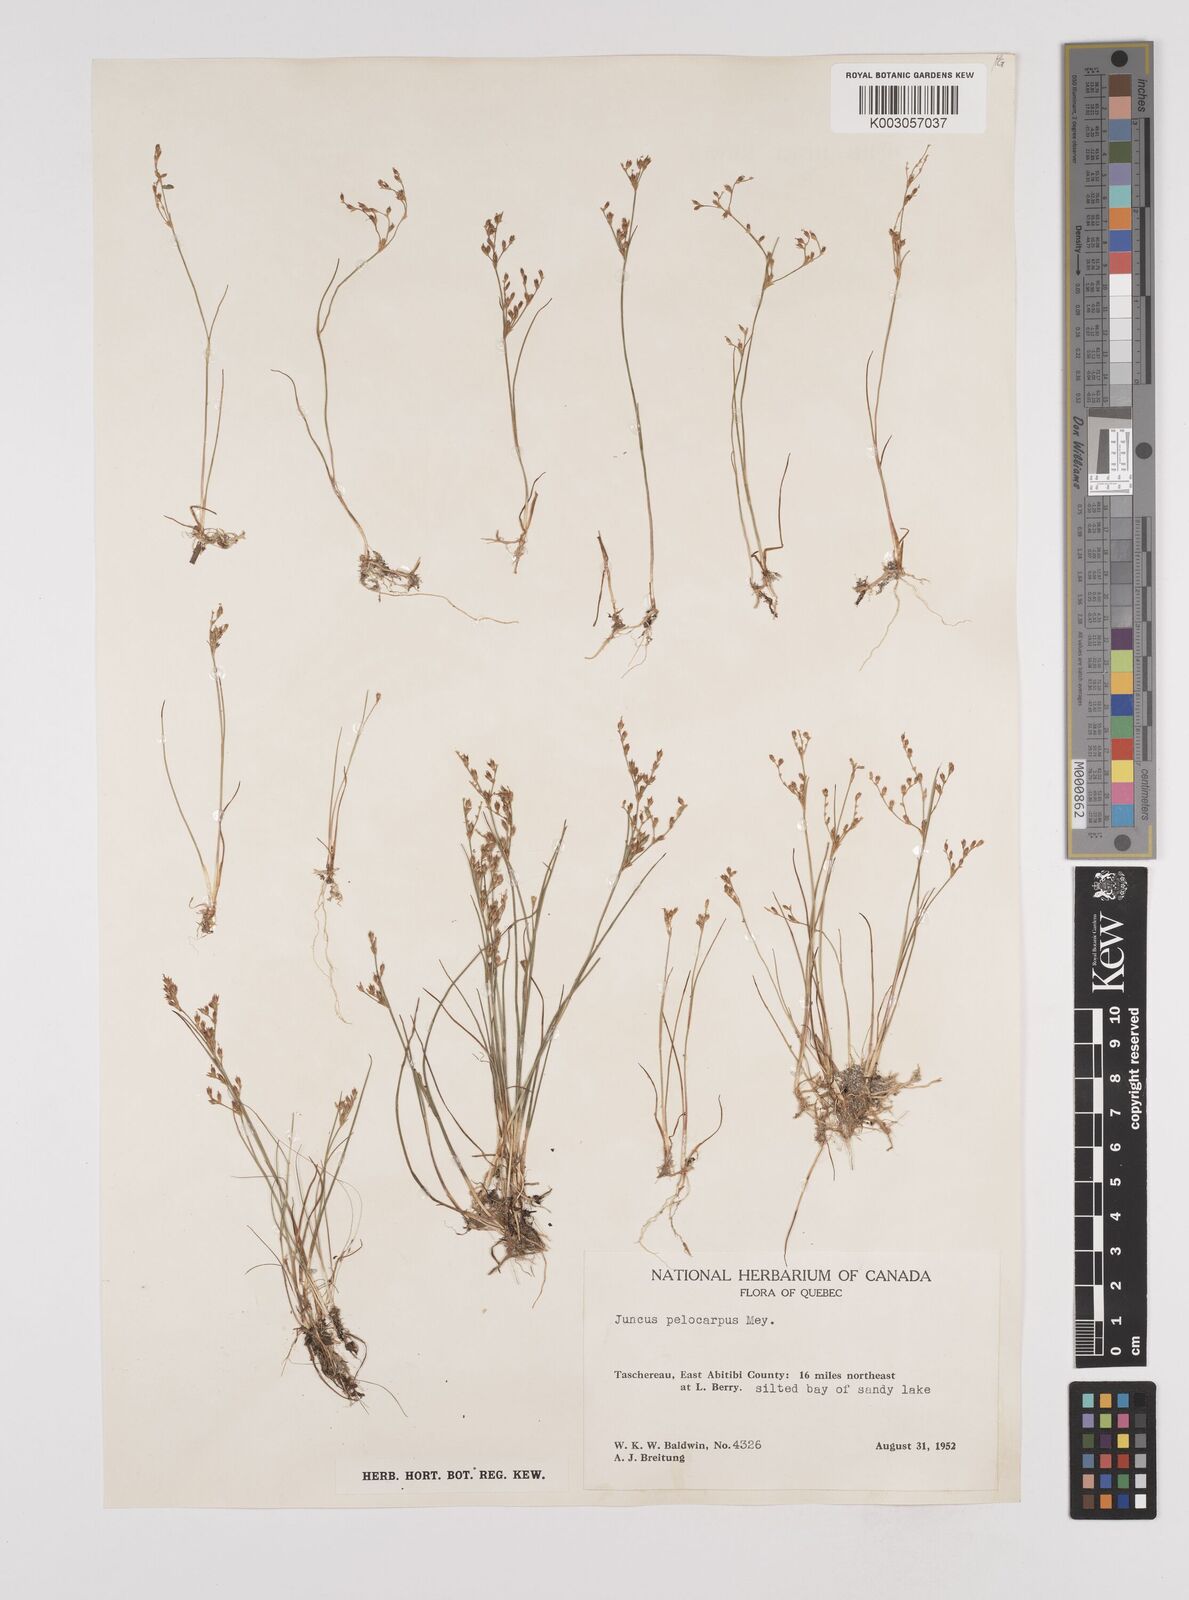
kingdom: Plantae
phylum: Tracheophyta
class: Liliopsida
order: Poales
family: Juncaceae
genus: Juncus
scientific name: Juncus pelocarpus
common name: Brown-fruited rush
